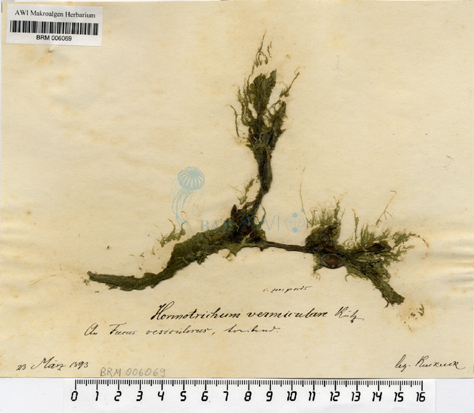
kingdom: Plantae
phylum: Chlorophyta
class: Ulvophyceae
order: Cladophorales
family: Cladophoraceae
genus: Hormotrichum
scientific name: Hormotrichum
